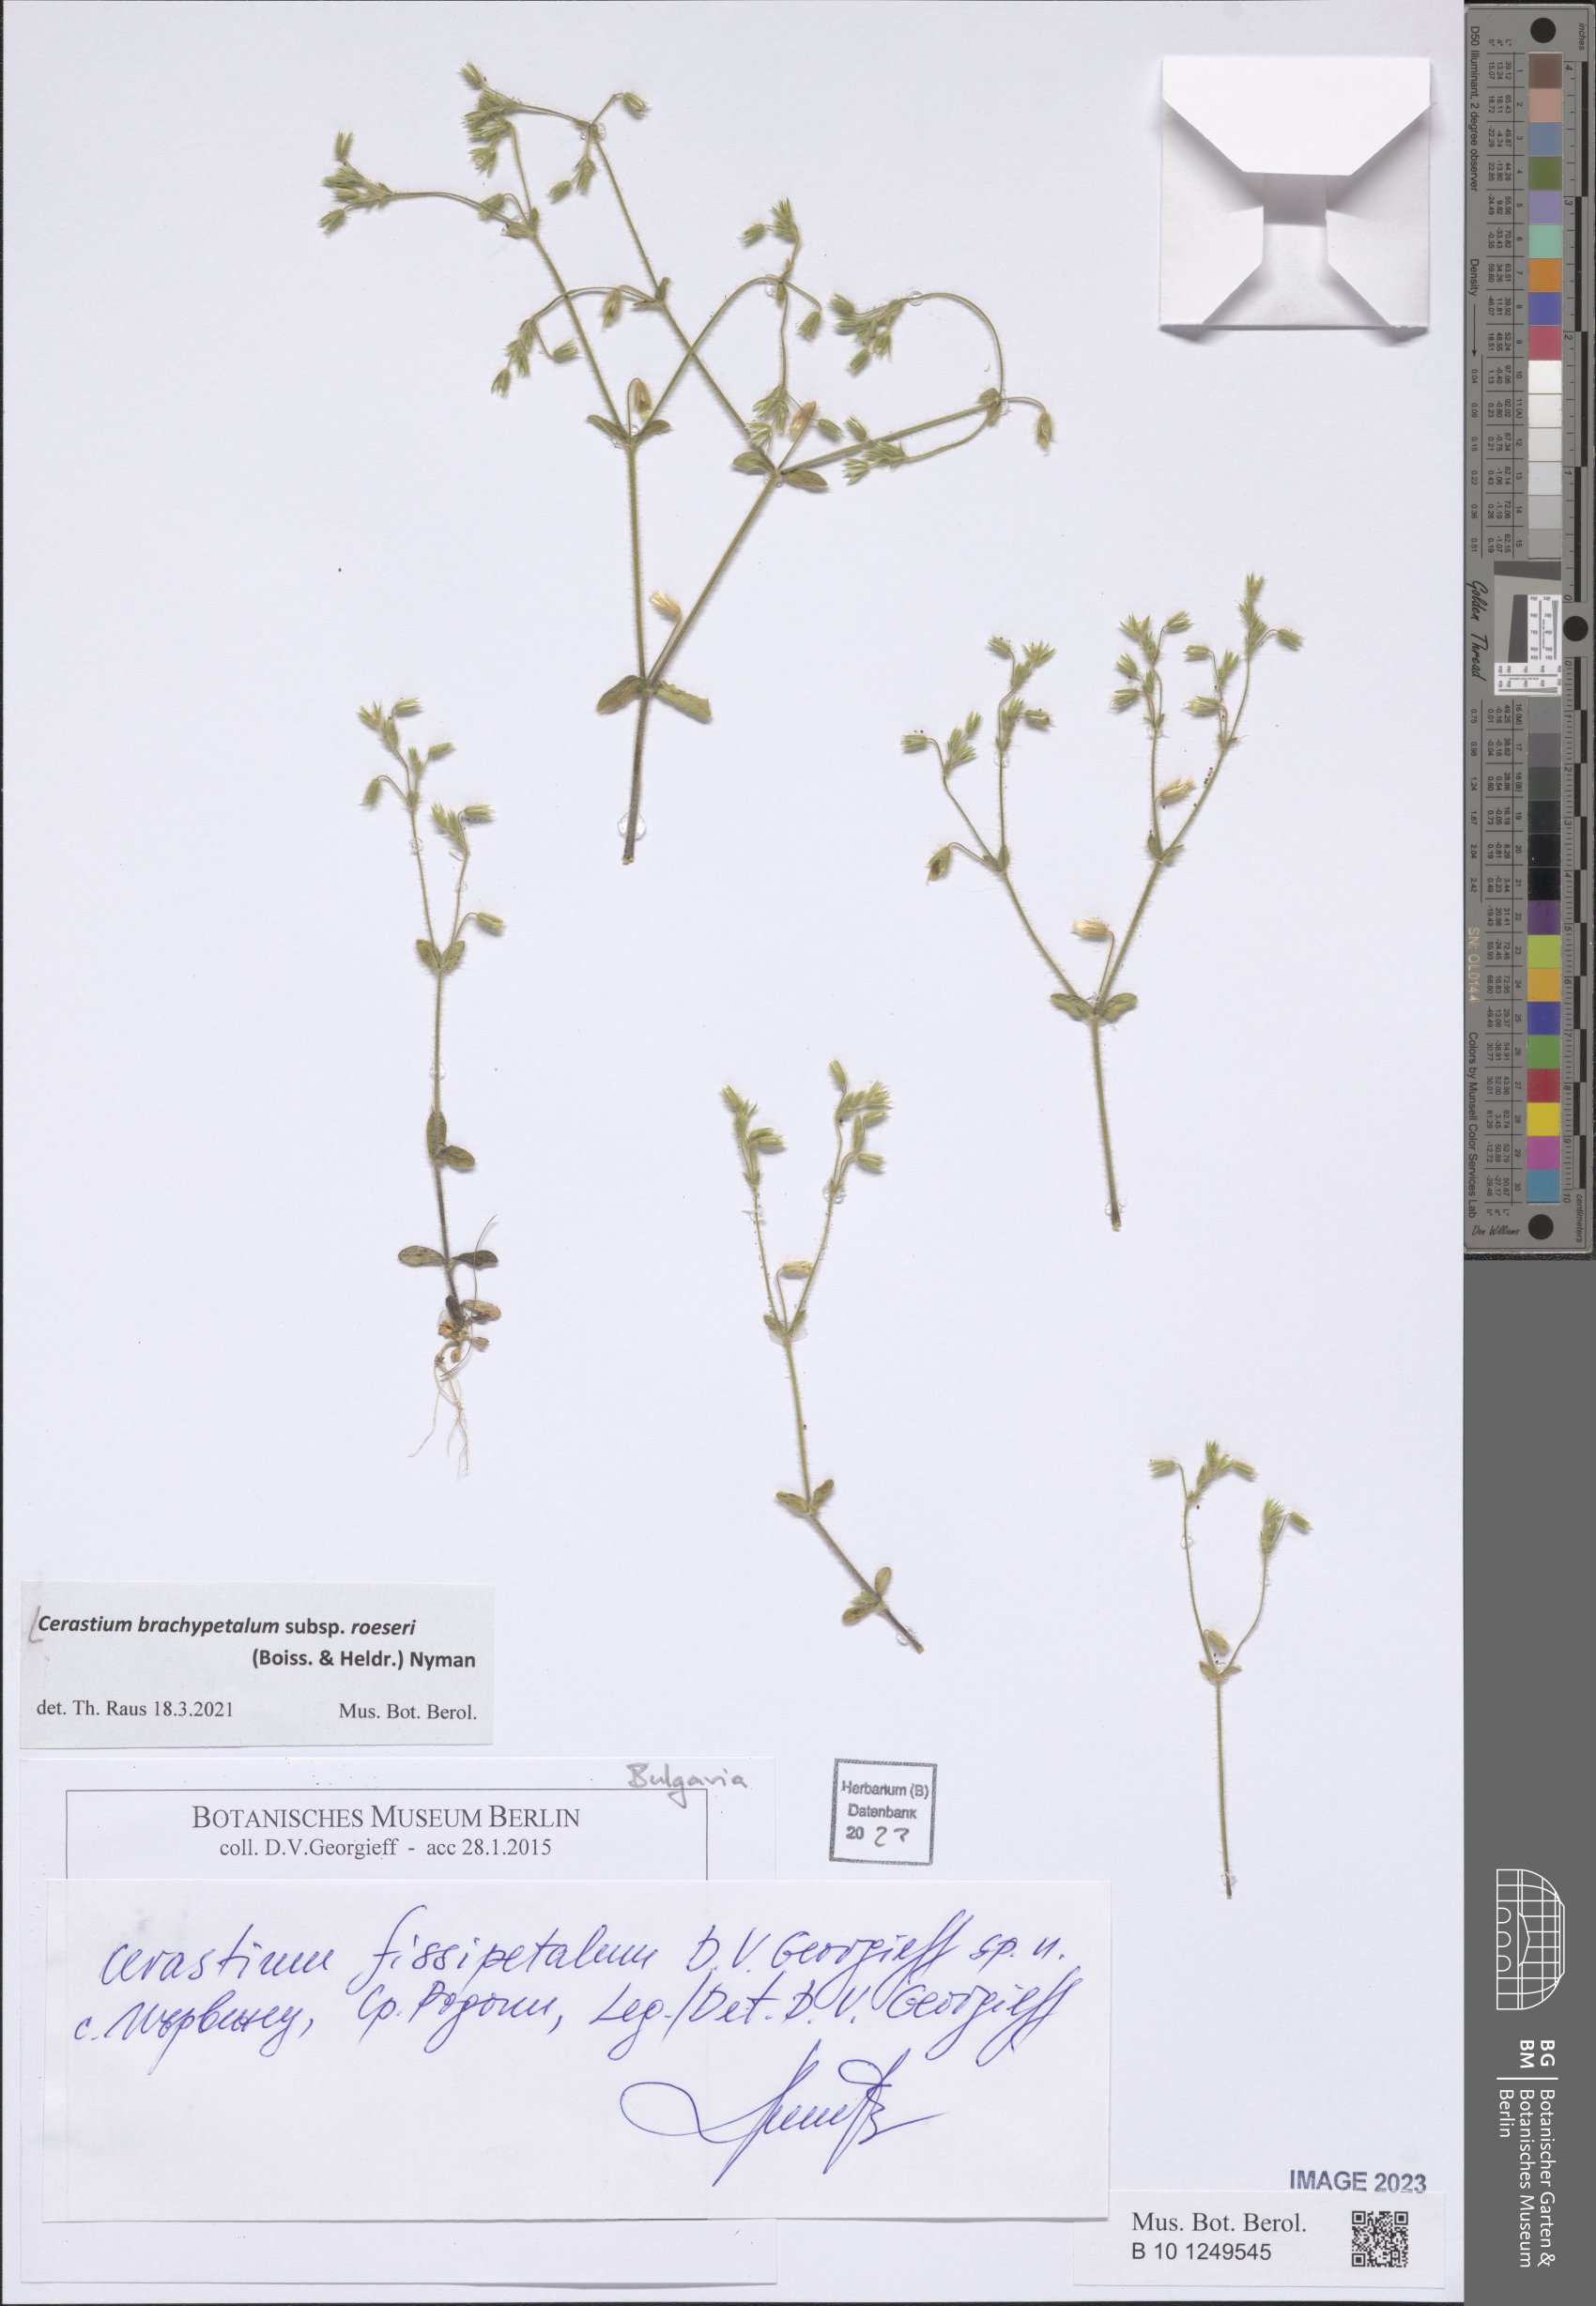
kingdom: Plantae
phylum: Tracheophyta
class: Magnoliopsida
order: Caryophyllales
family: Caryophyllaceae
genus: Cerastium
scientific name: Cerastium brachypetalum
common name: Grey mouse-ear
